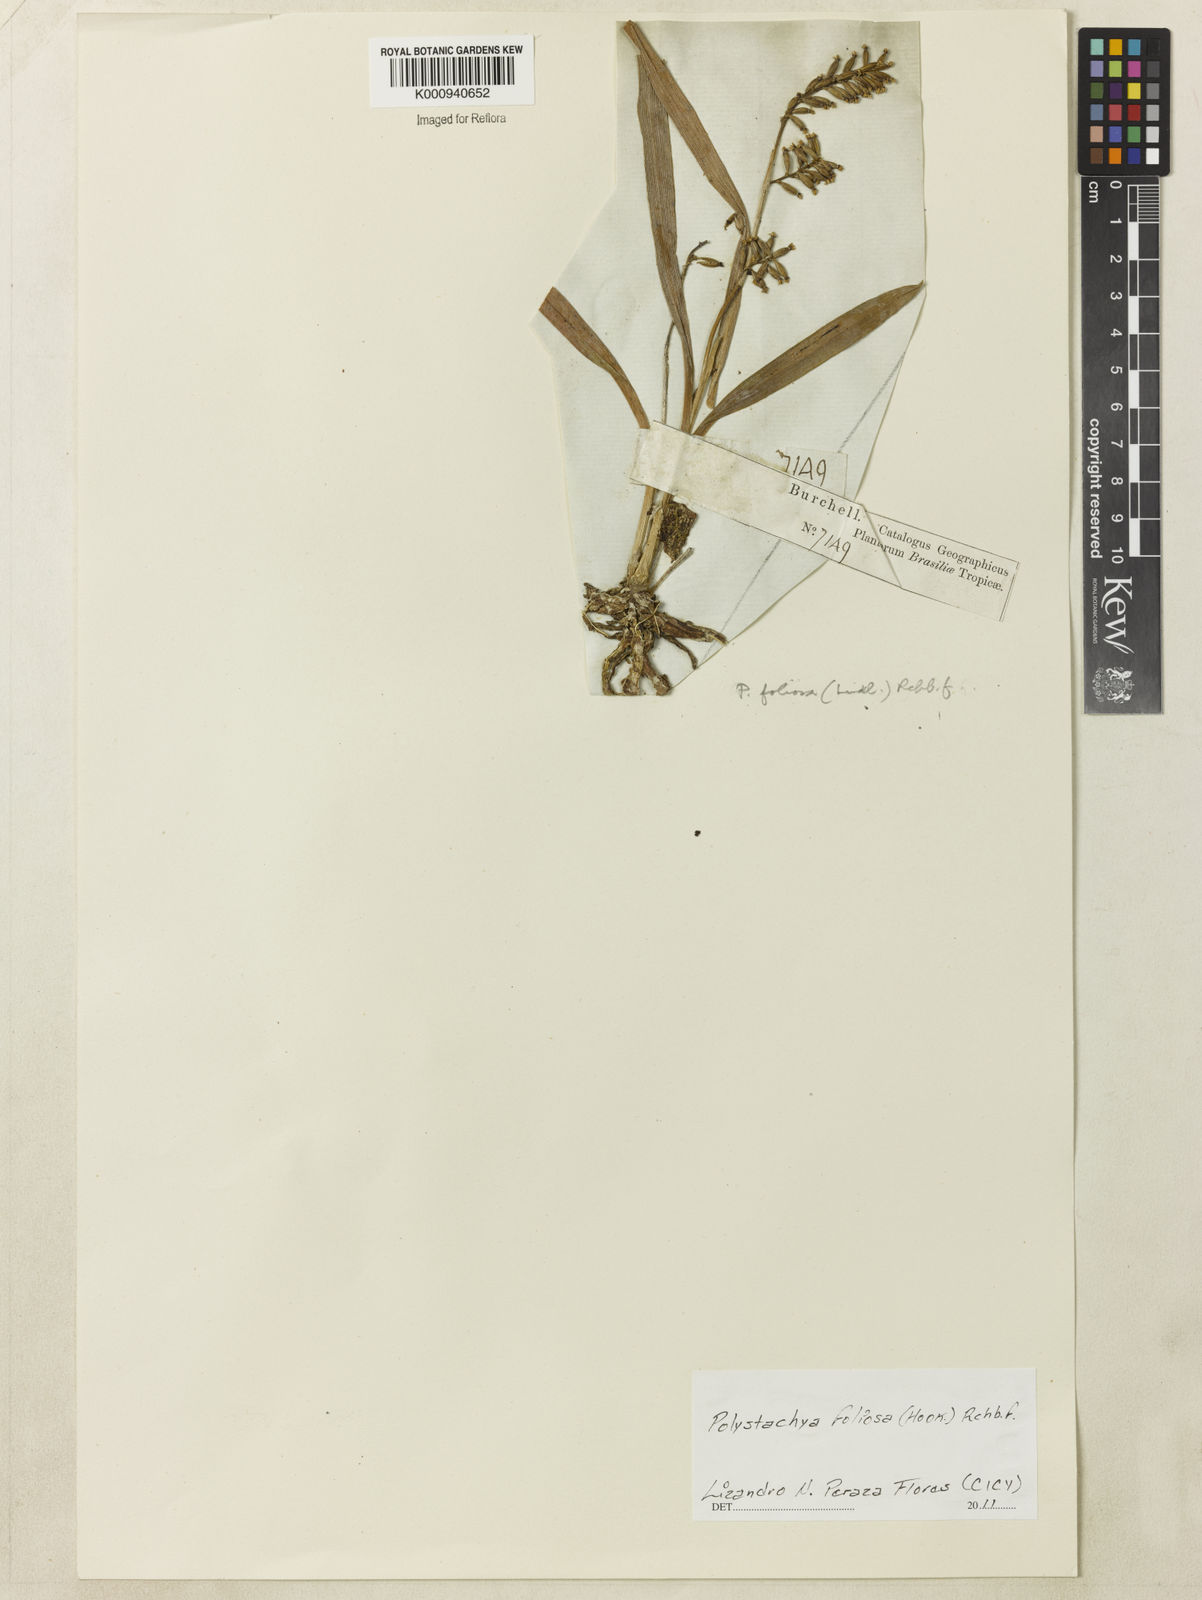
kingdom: Plantae
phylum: Tracheophyta
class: Liliopsida
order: Asparagales
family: Orchidaceae
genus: Polystachya
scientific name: Polystachya foliosa
